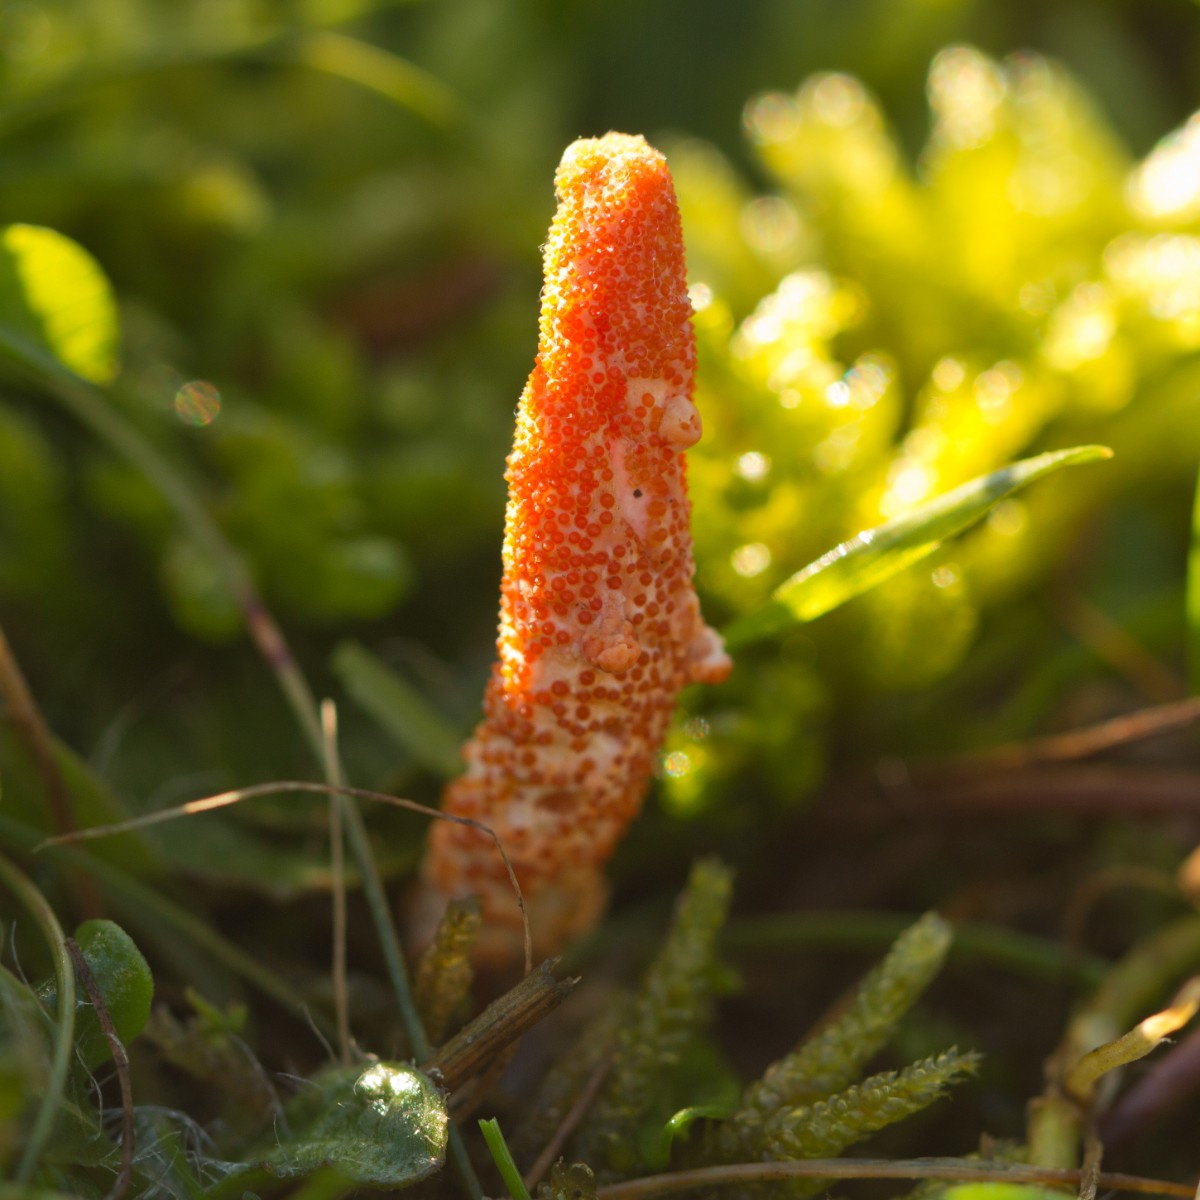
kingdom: Fungi
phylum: Ascomycota
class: Sordariomycetes
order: Hypocreales
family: Cordycipitaceae
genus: Cordyceps
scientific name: Cordyceps militaris
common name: puppe-snyltekølle
